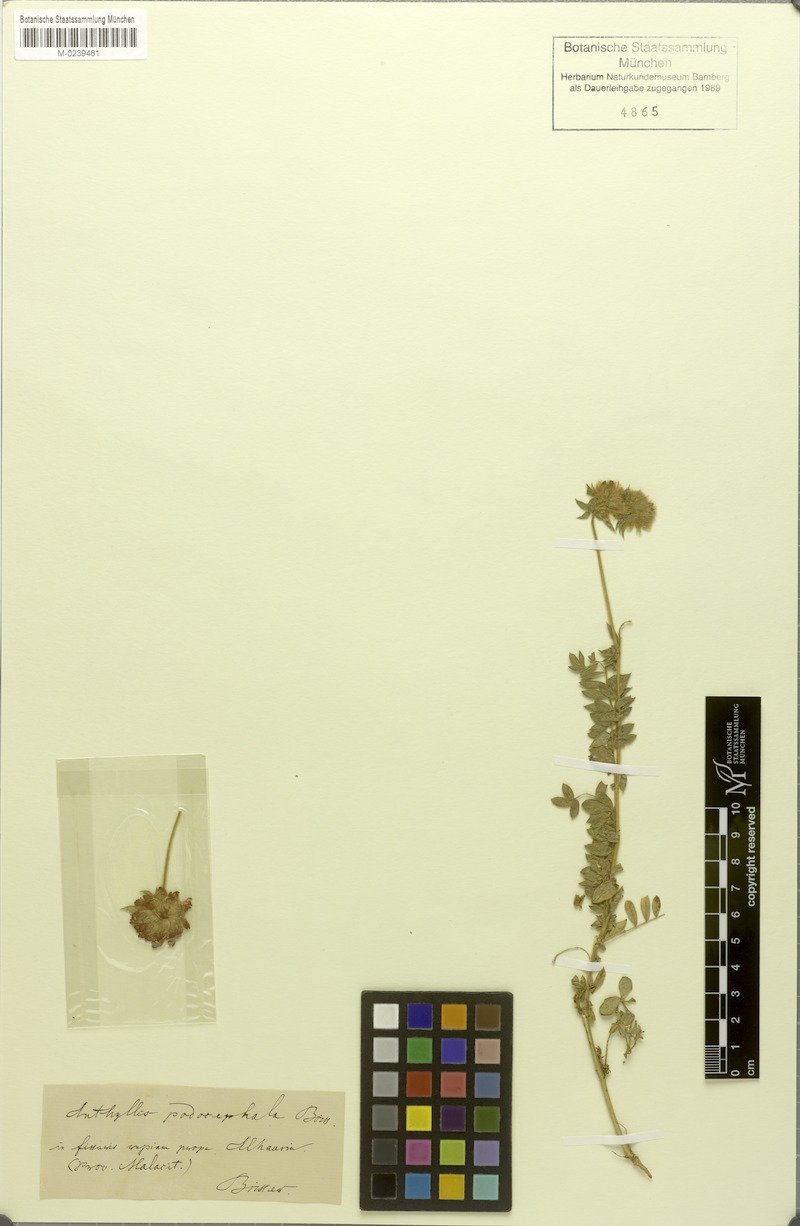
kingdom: Plantae
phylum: Tracheophyta
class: Magnoliopsida
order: Fabales
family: Fabaceae
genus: Anthyllis
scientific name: Anthyllis polycephala
